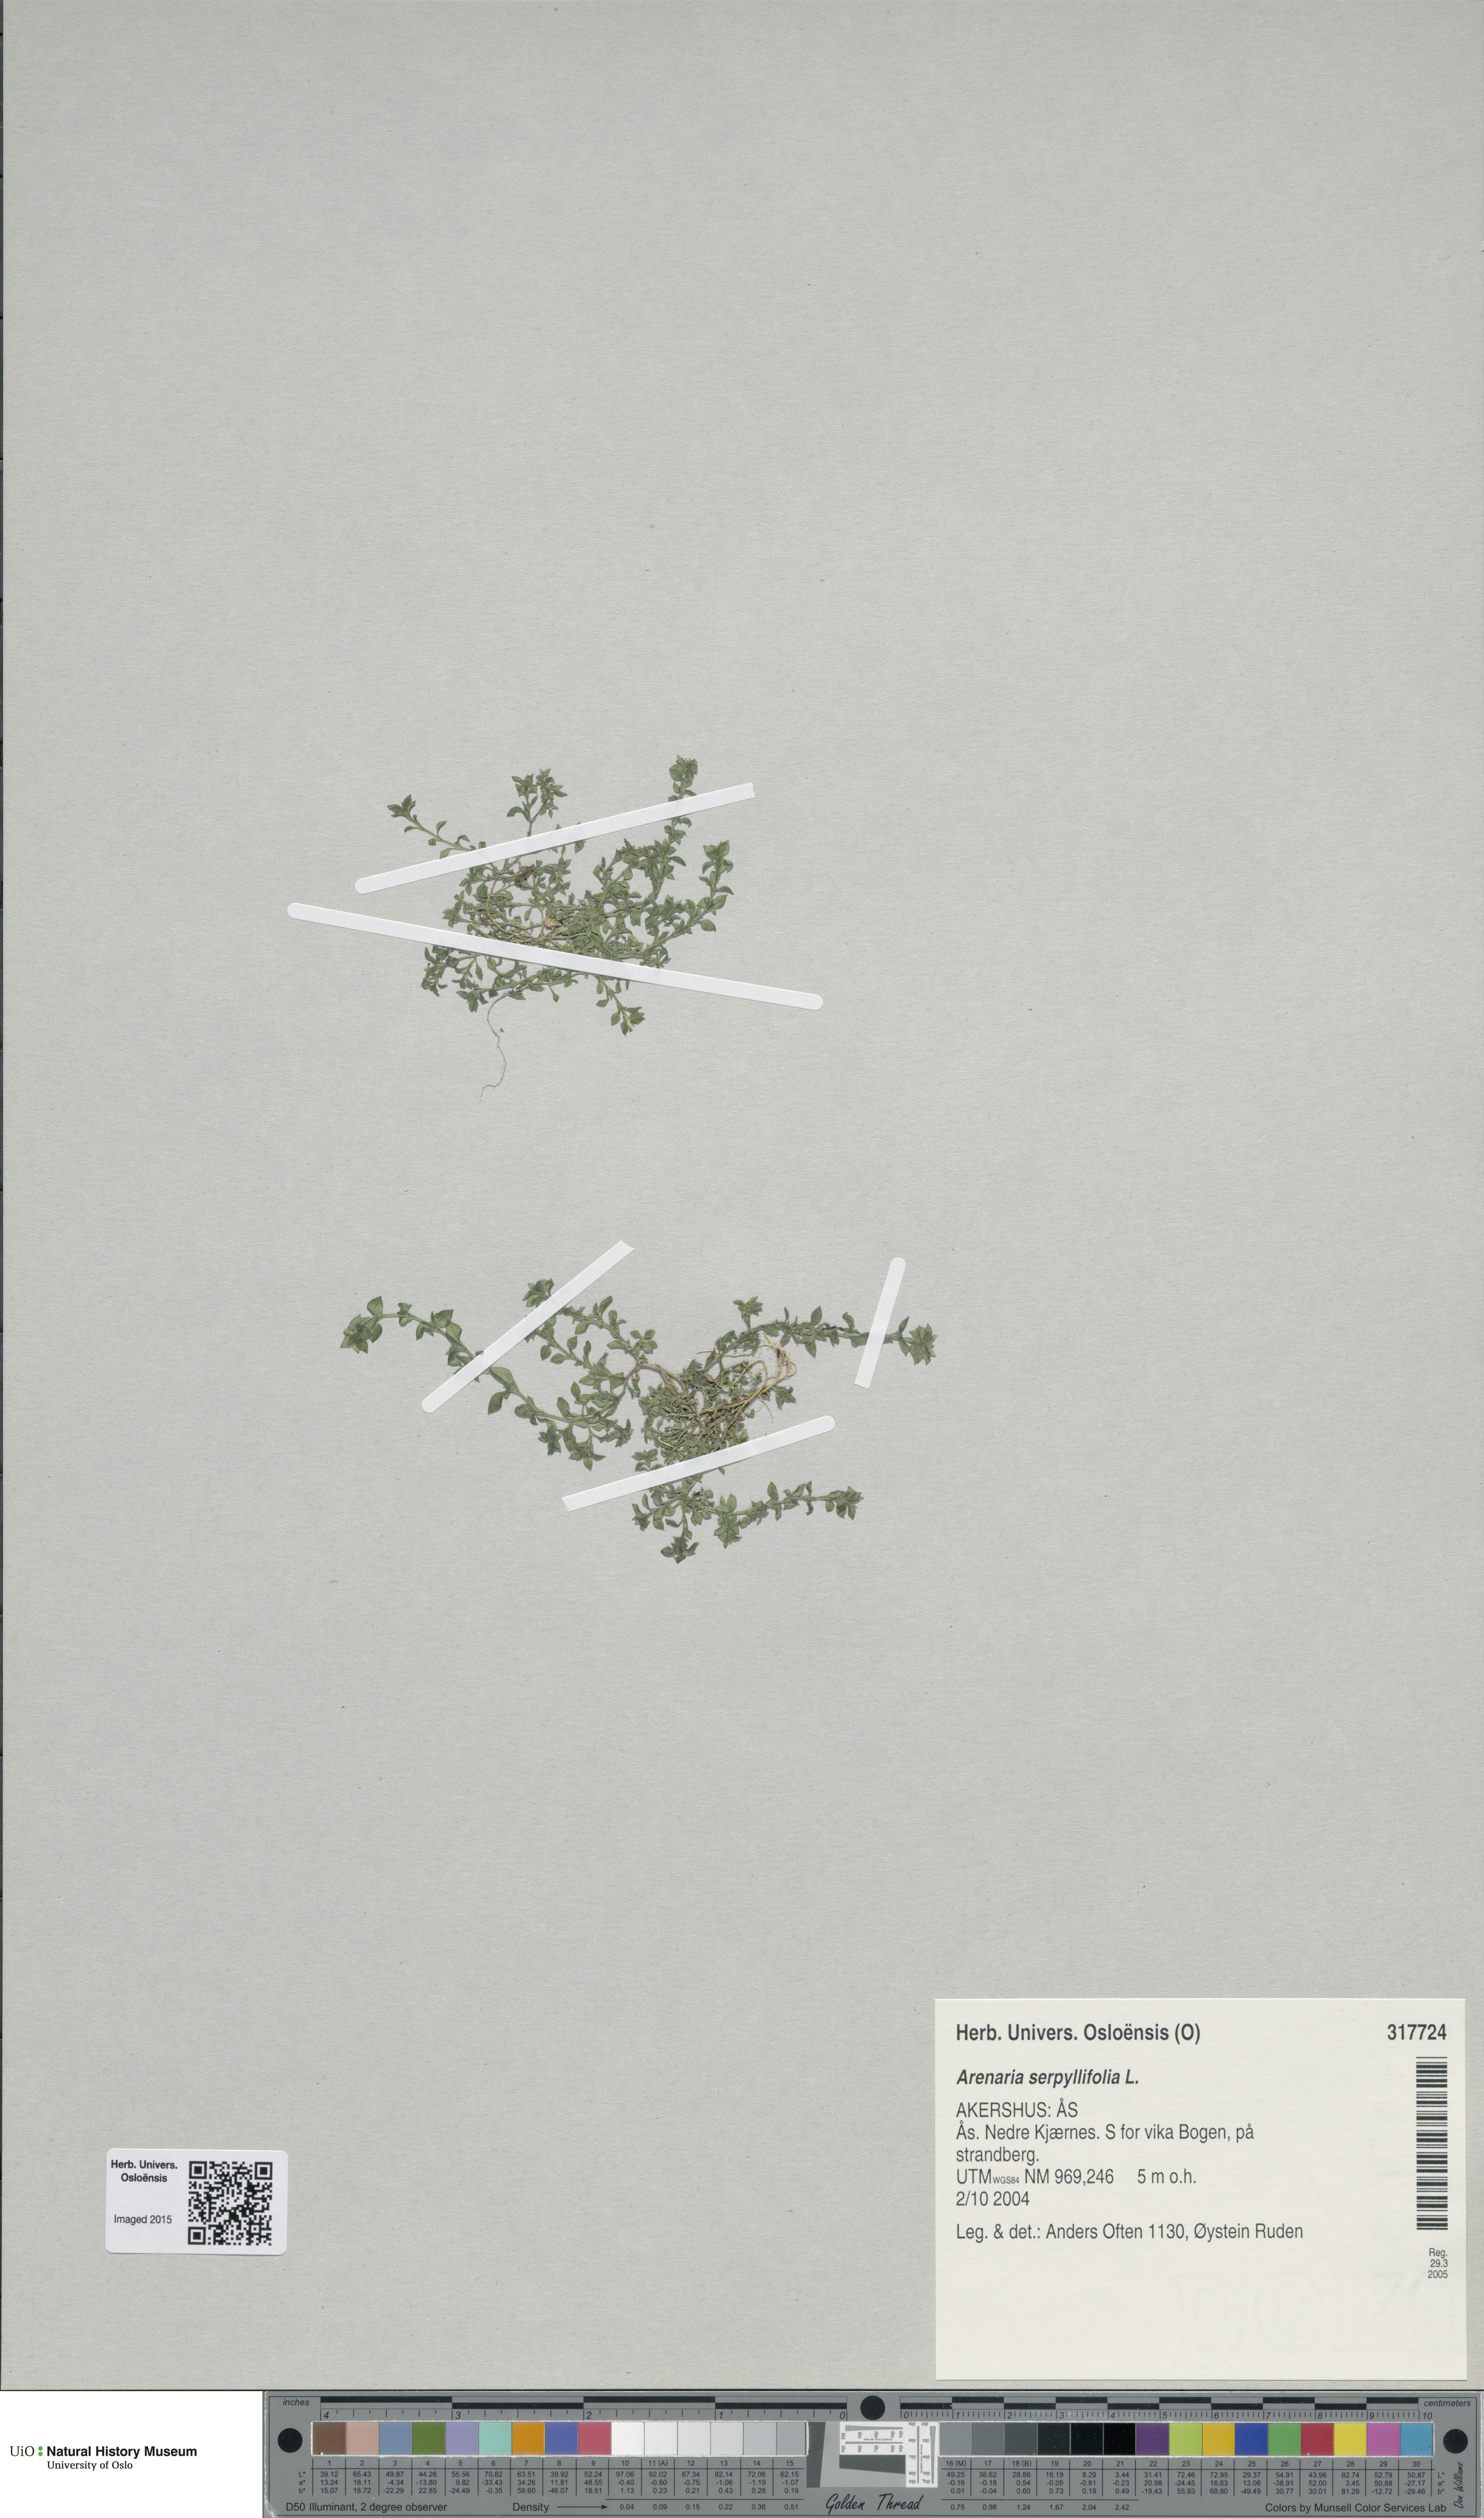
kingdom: Plantae
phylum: Tracheophyta
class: Magnoliopsida
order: Caryophyllales
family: Caryophyllaceae
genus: Arenaria
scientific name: Arenaria serpyllifolia
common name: Thyme-leaved sandwort
